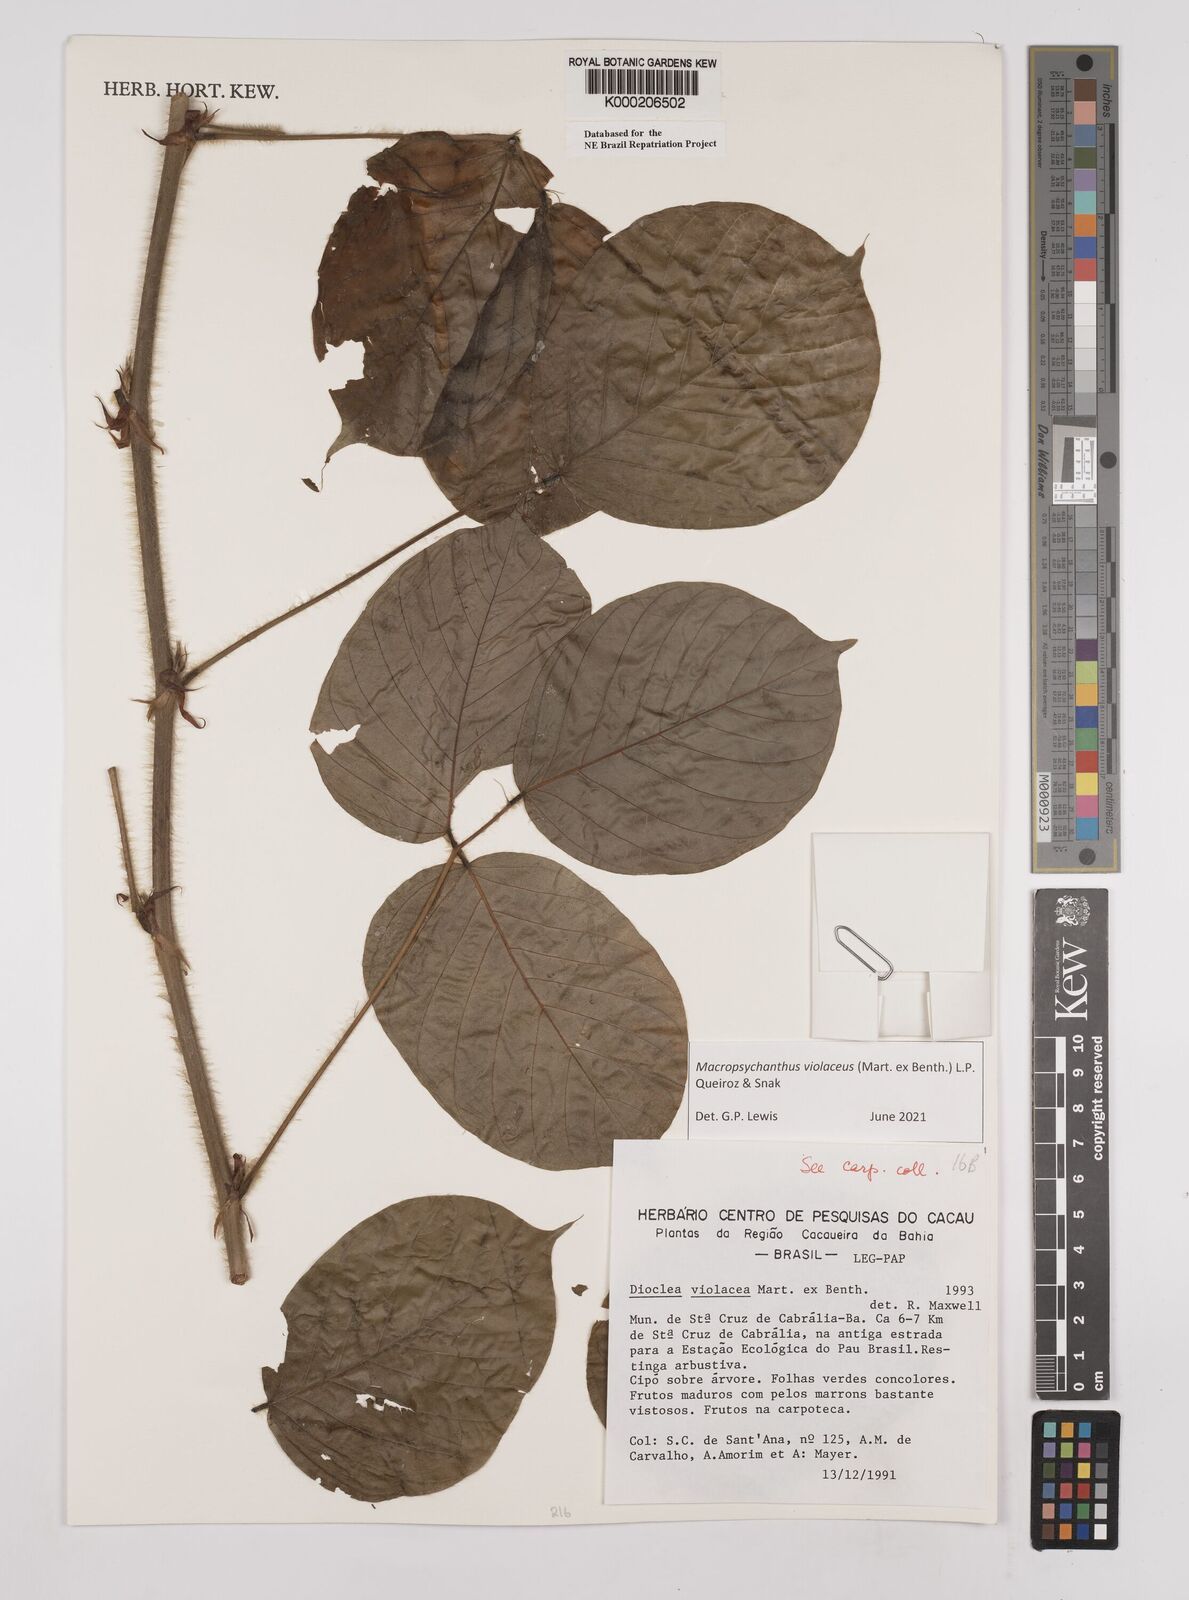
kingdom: Plantae
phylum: Tracheophyta
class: Magnoliopsida
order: Fabales
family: Fabaceae
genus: Macropsychanthus
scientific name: Macropsychanthus violaceus
